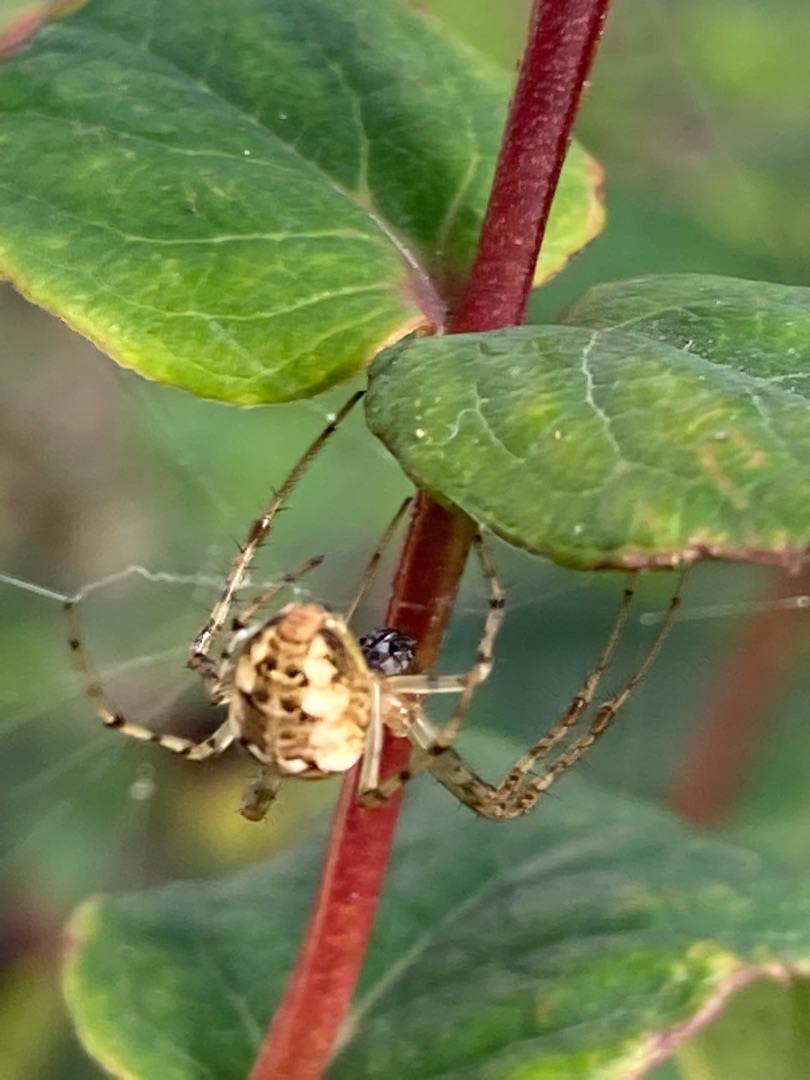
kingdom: Animalia
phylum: Arthropoda
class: Arachnida
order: Araneae
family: Tetragnathidae
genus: Metellina
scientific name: Metellina
